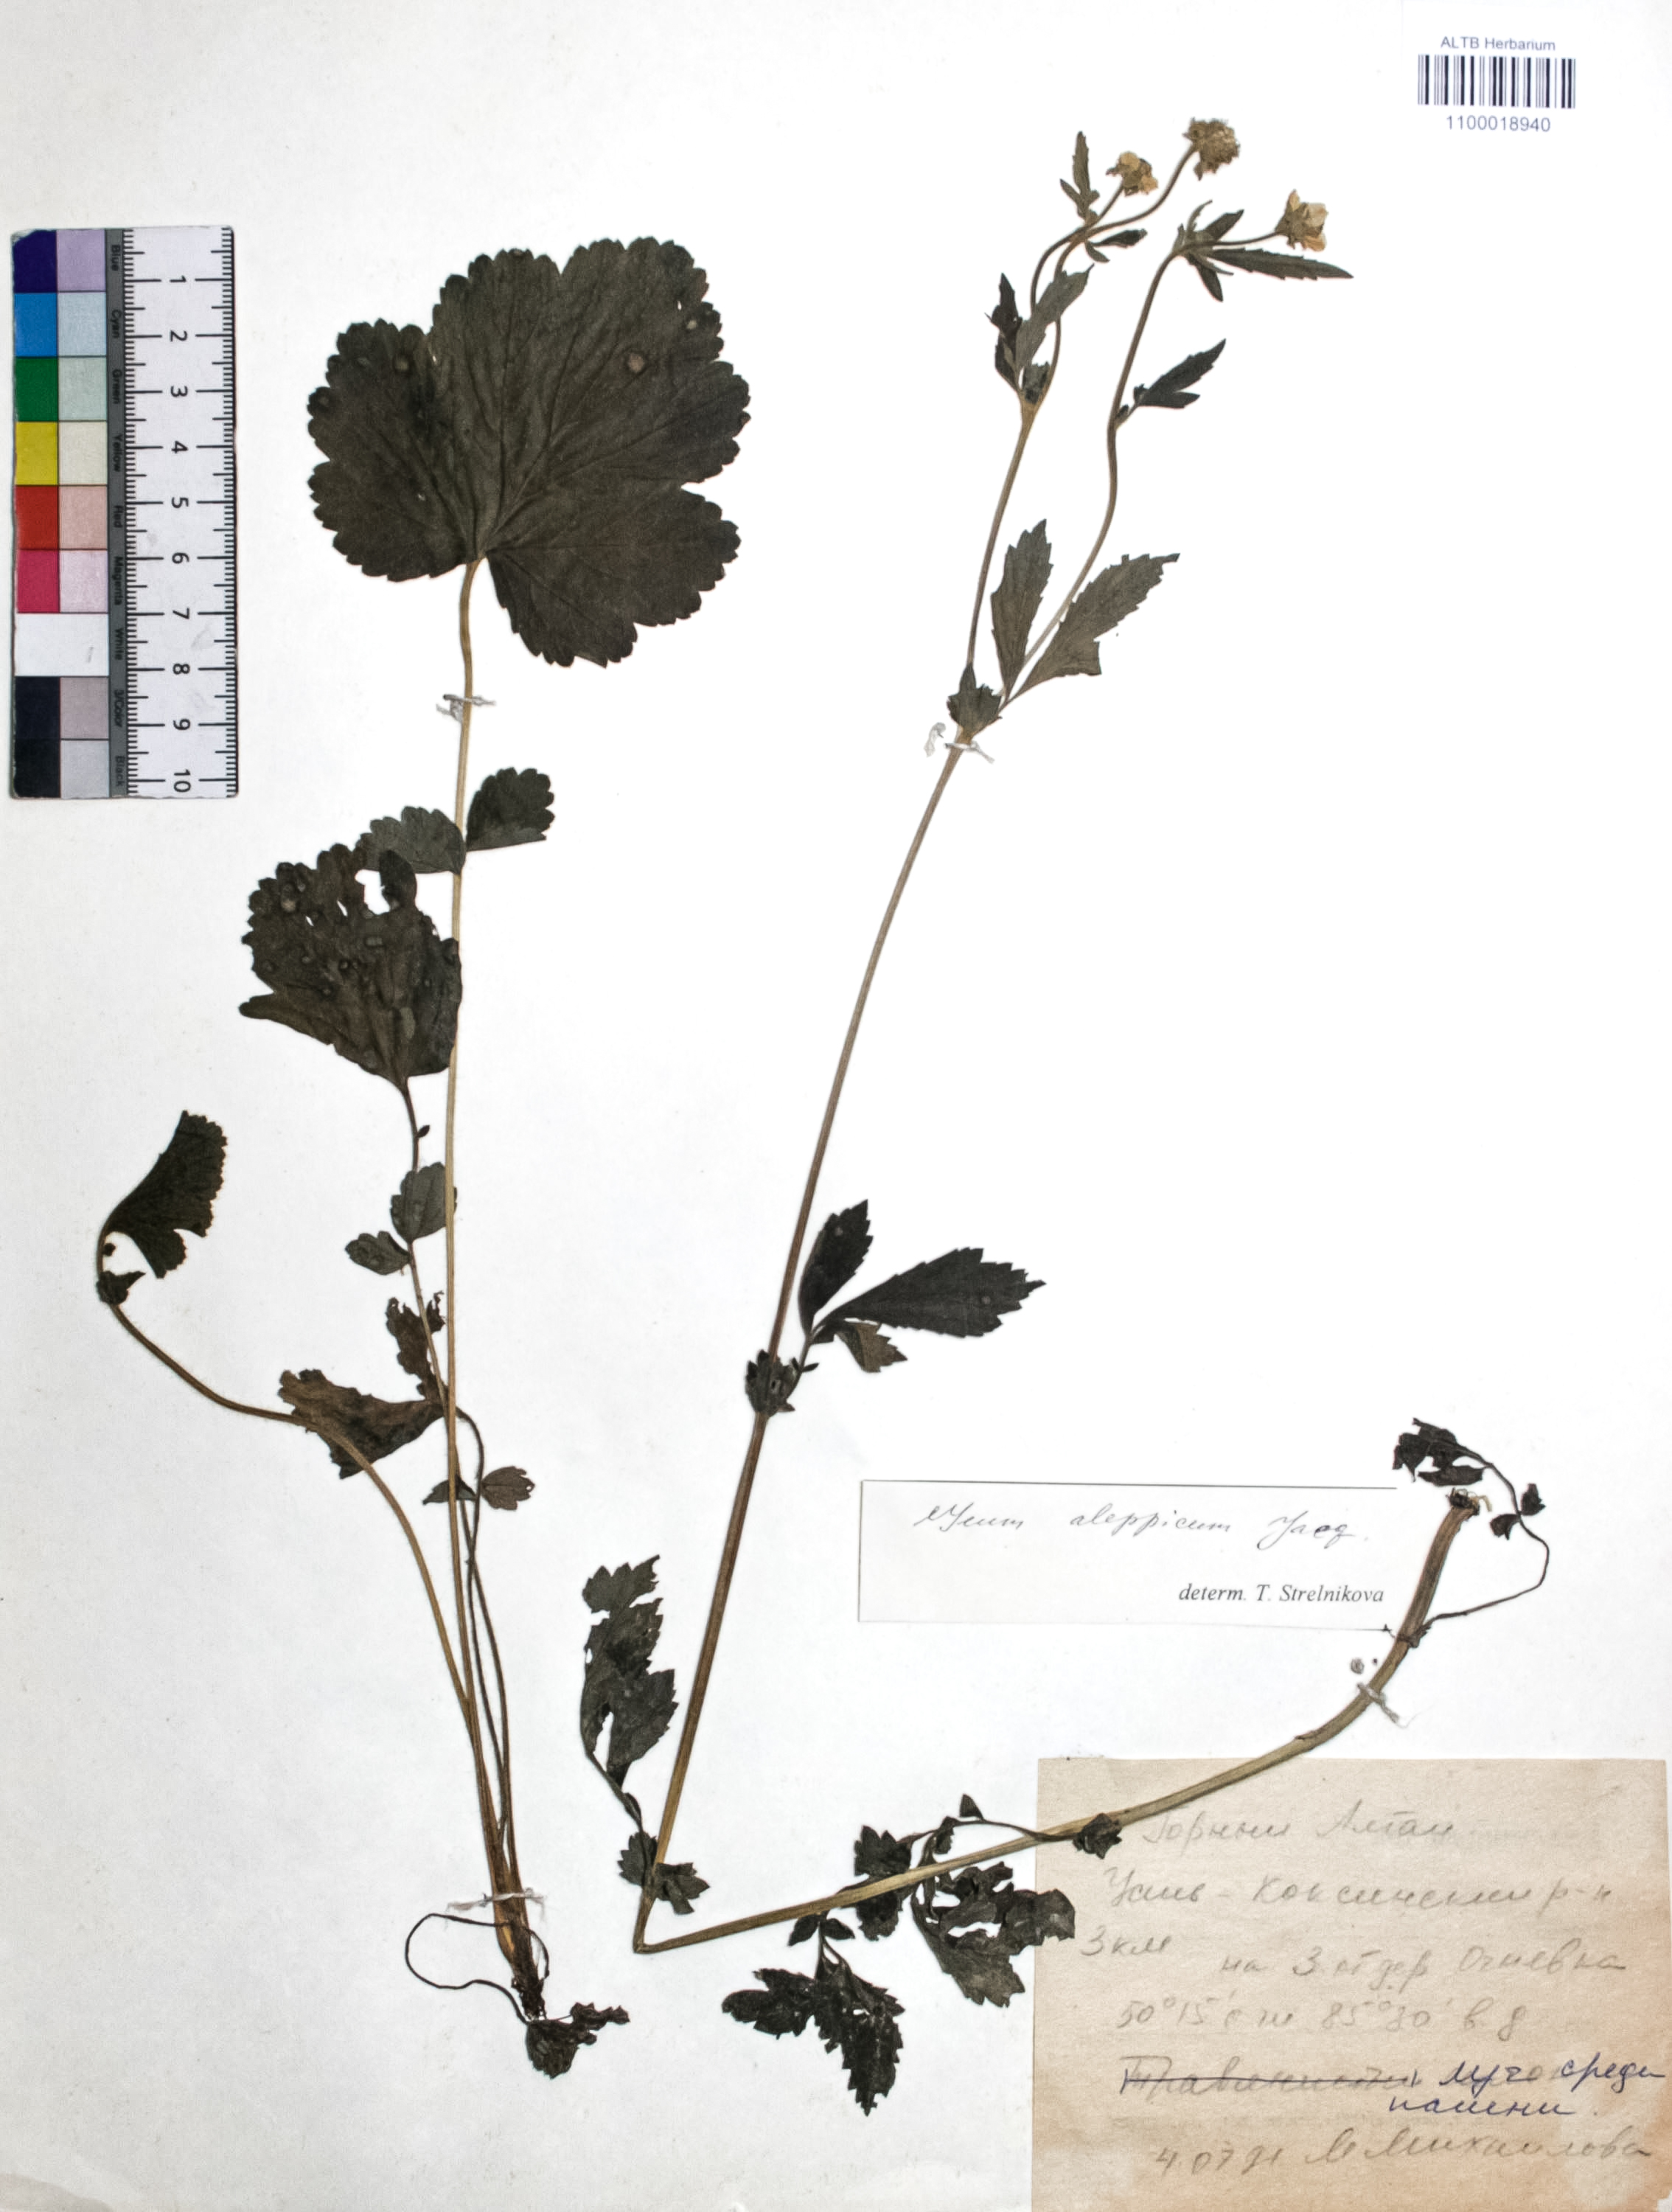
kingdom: Plantae
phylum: Tracheophyta
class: Magnoliopsida
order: Rosales
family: Rosaceae
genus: Geum
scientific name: Geum aleppicum
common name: Yellow avens
